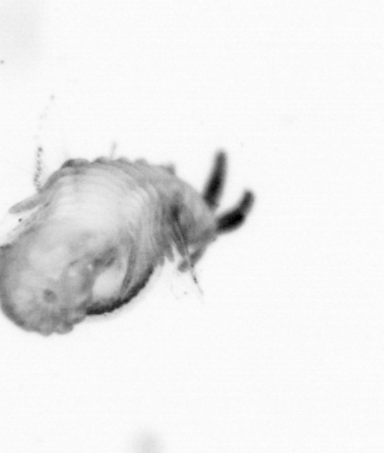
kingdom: Animalia
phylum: Annelida
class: Polychaeta
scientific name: Polychaeta
